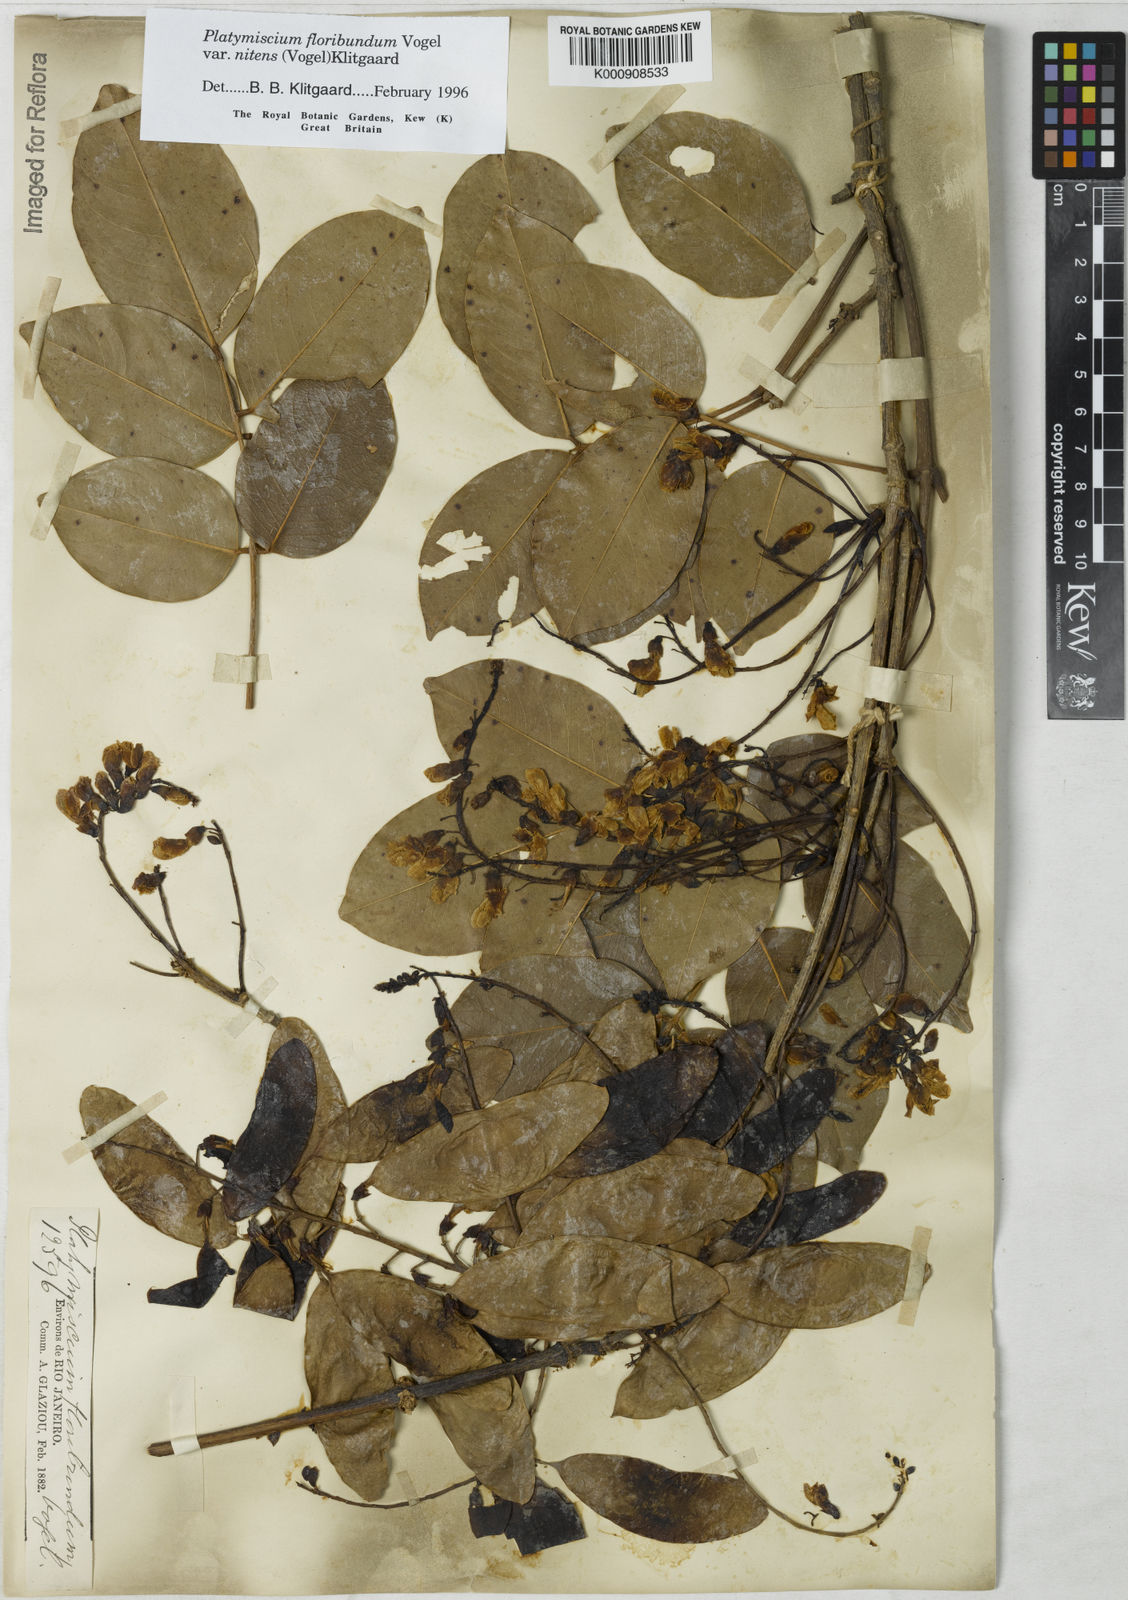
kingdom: Plantae
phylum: Tracheophyta
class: Magnoliopsida
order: Fabales
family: Fabaceae
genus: Platymiscium
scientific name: Platymiscium floribundum
